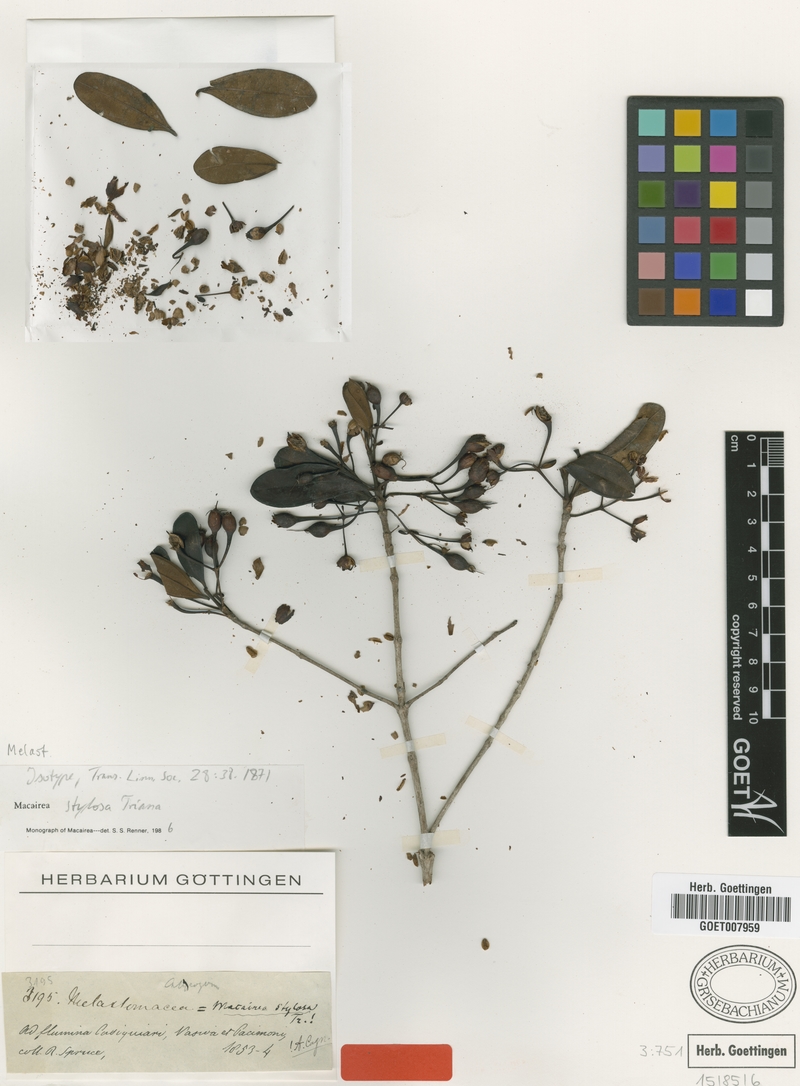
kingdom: Plantae
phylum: Tracheophyta
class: Magnoliopsida
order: Myrtales
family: Melastomataceae
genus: Macairea
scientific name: Macairea stylosa
